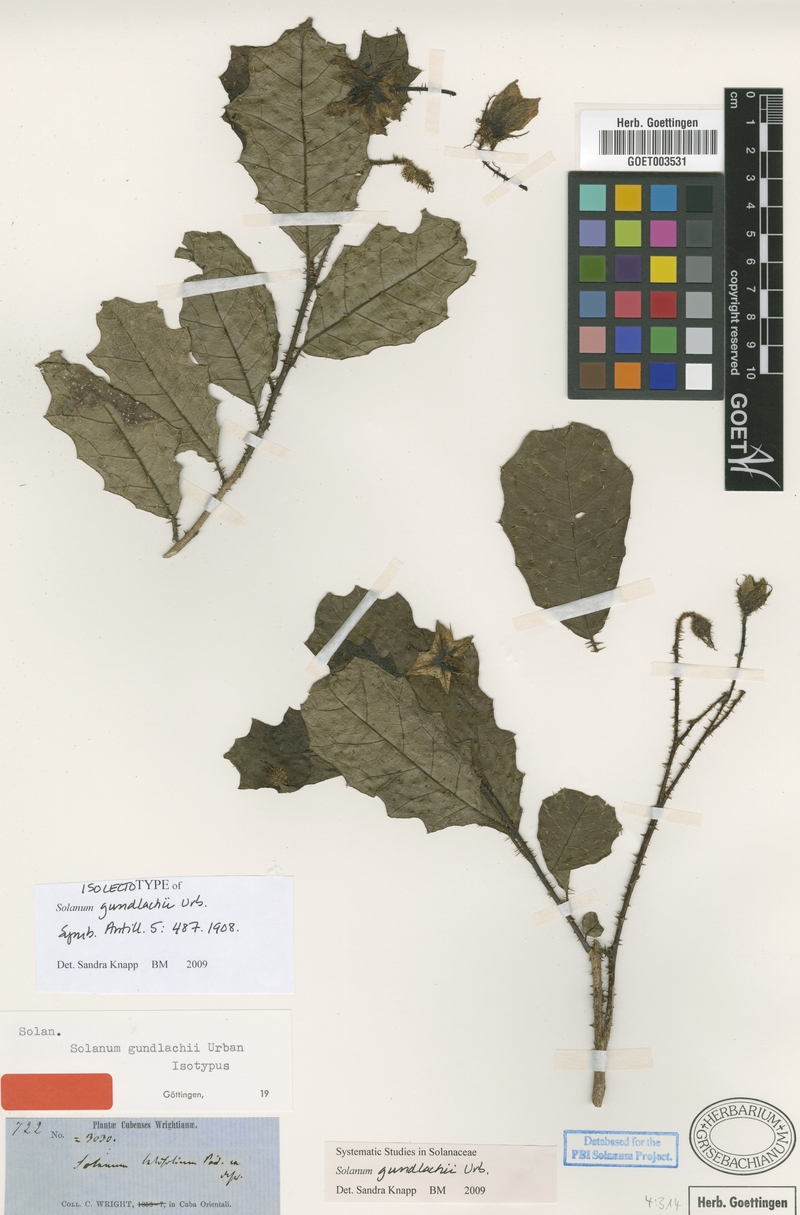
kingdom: Plantae
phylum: Tracheophyta
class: Magnoliopsida
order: Solanales
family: Solanaceae
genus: Solanum
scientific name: Solanum gundlachii
